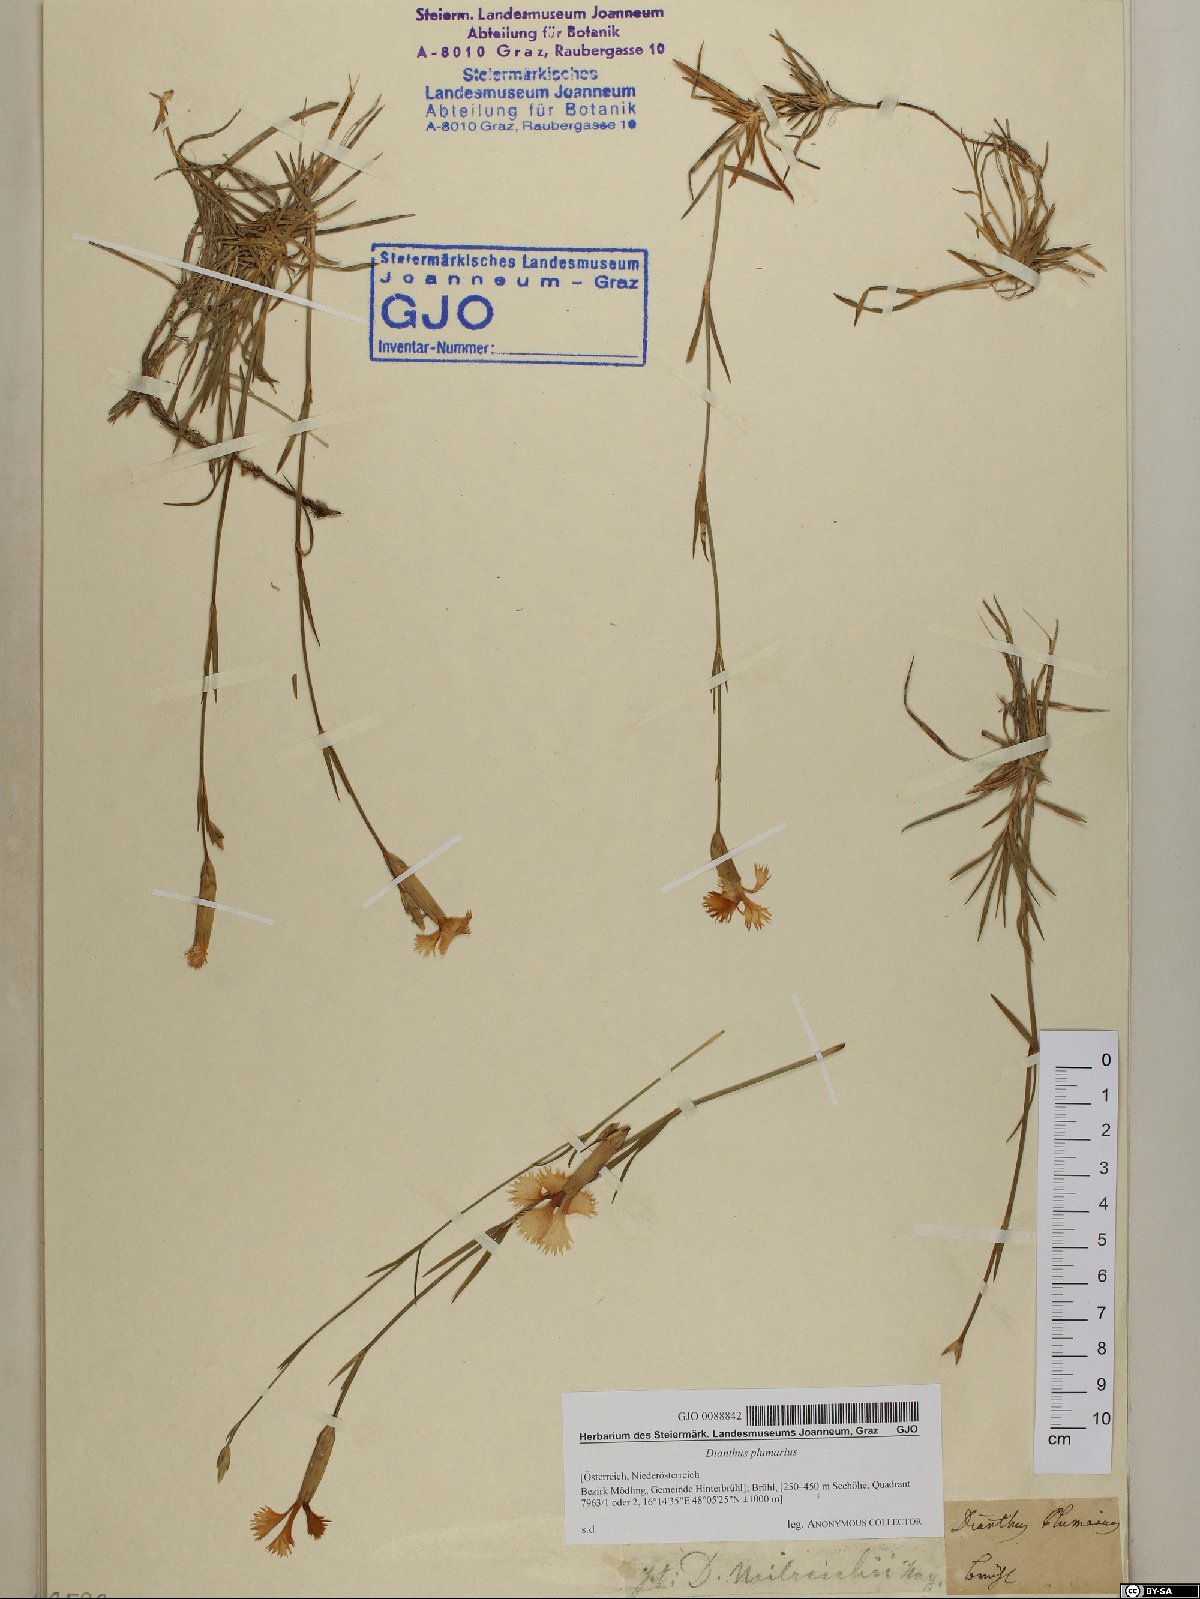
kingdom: Plantae
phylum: Tracheophyta
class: Magnoliopsida
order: Caryophyllales
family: Caryophyllaceae
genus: Dianthus
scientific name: Dianthus plumarius
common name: Pink
